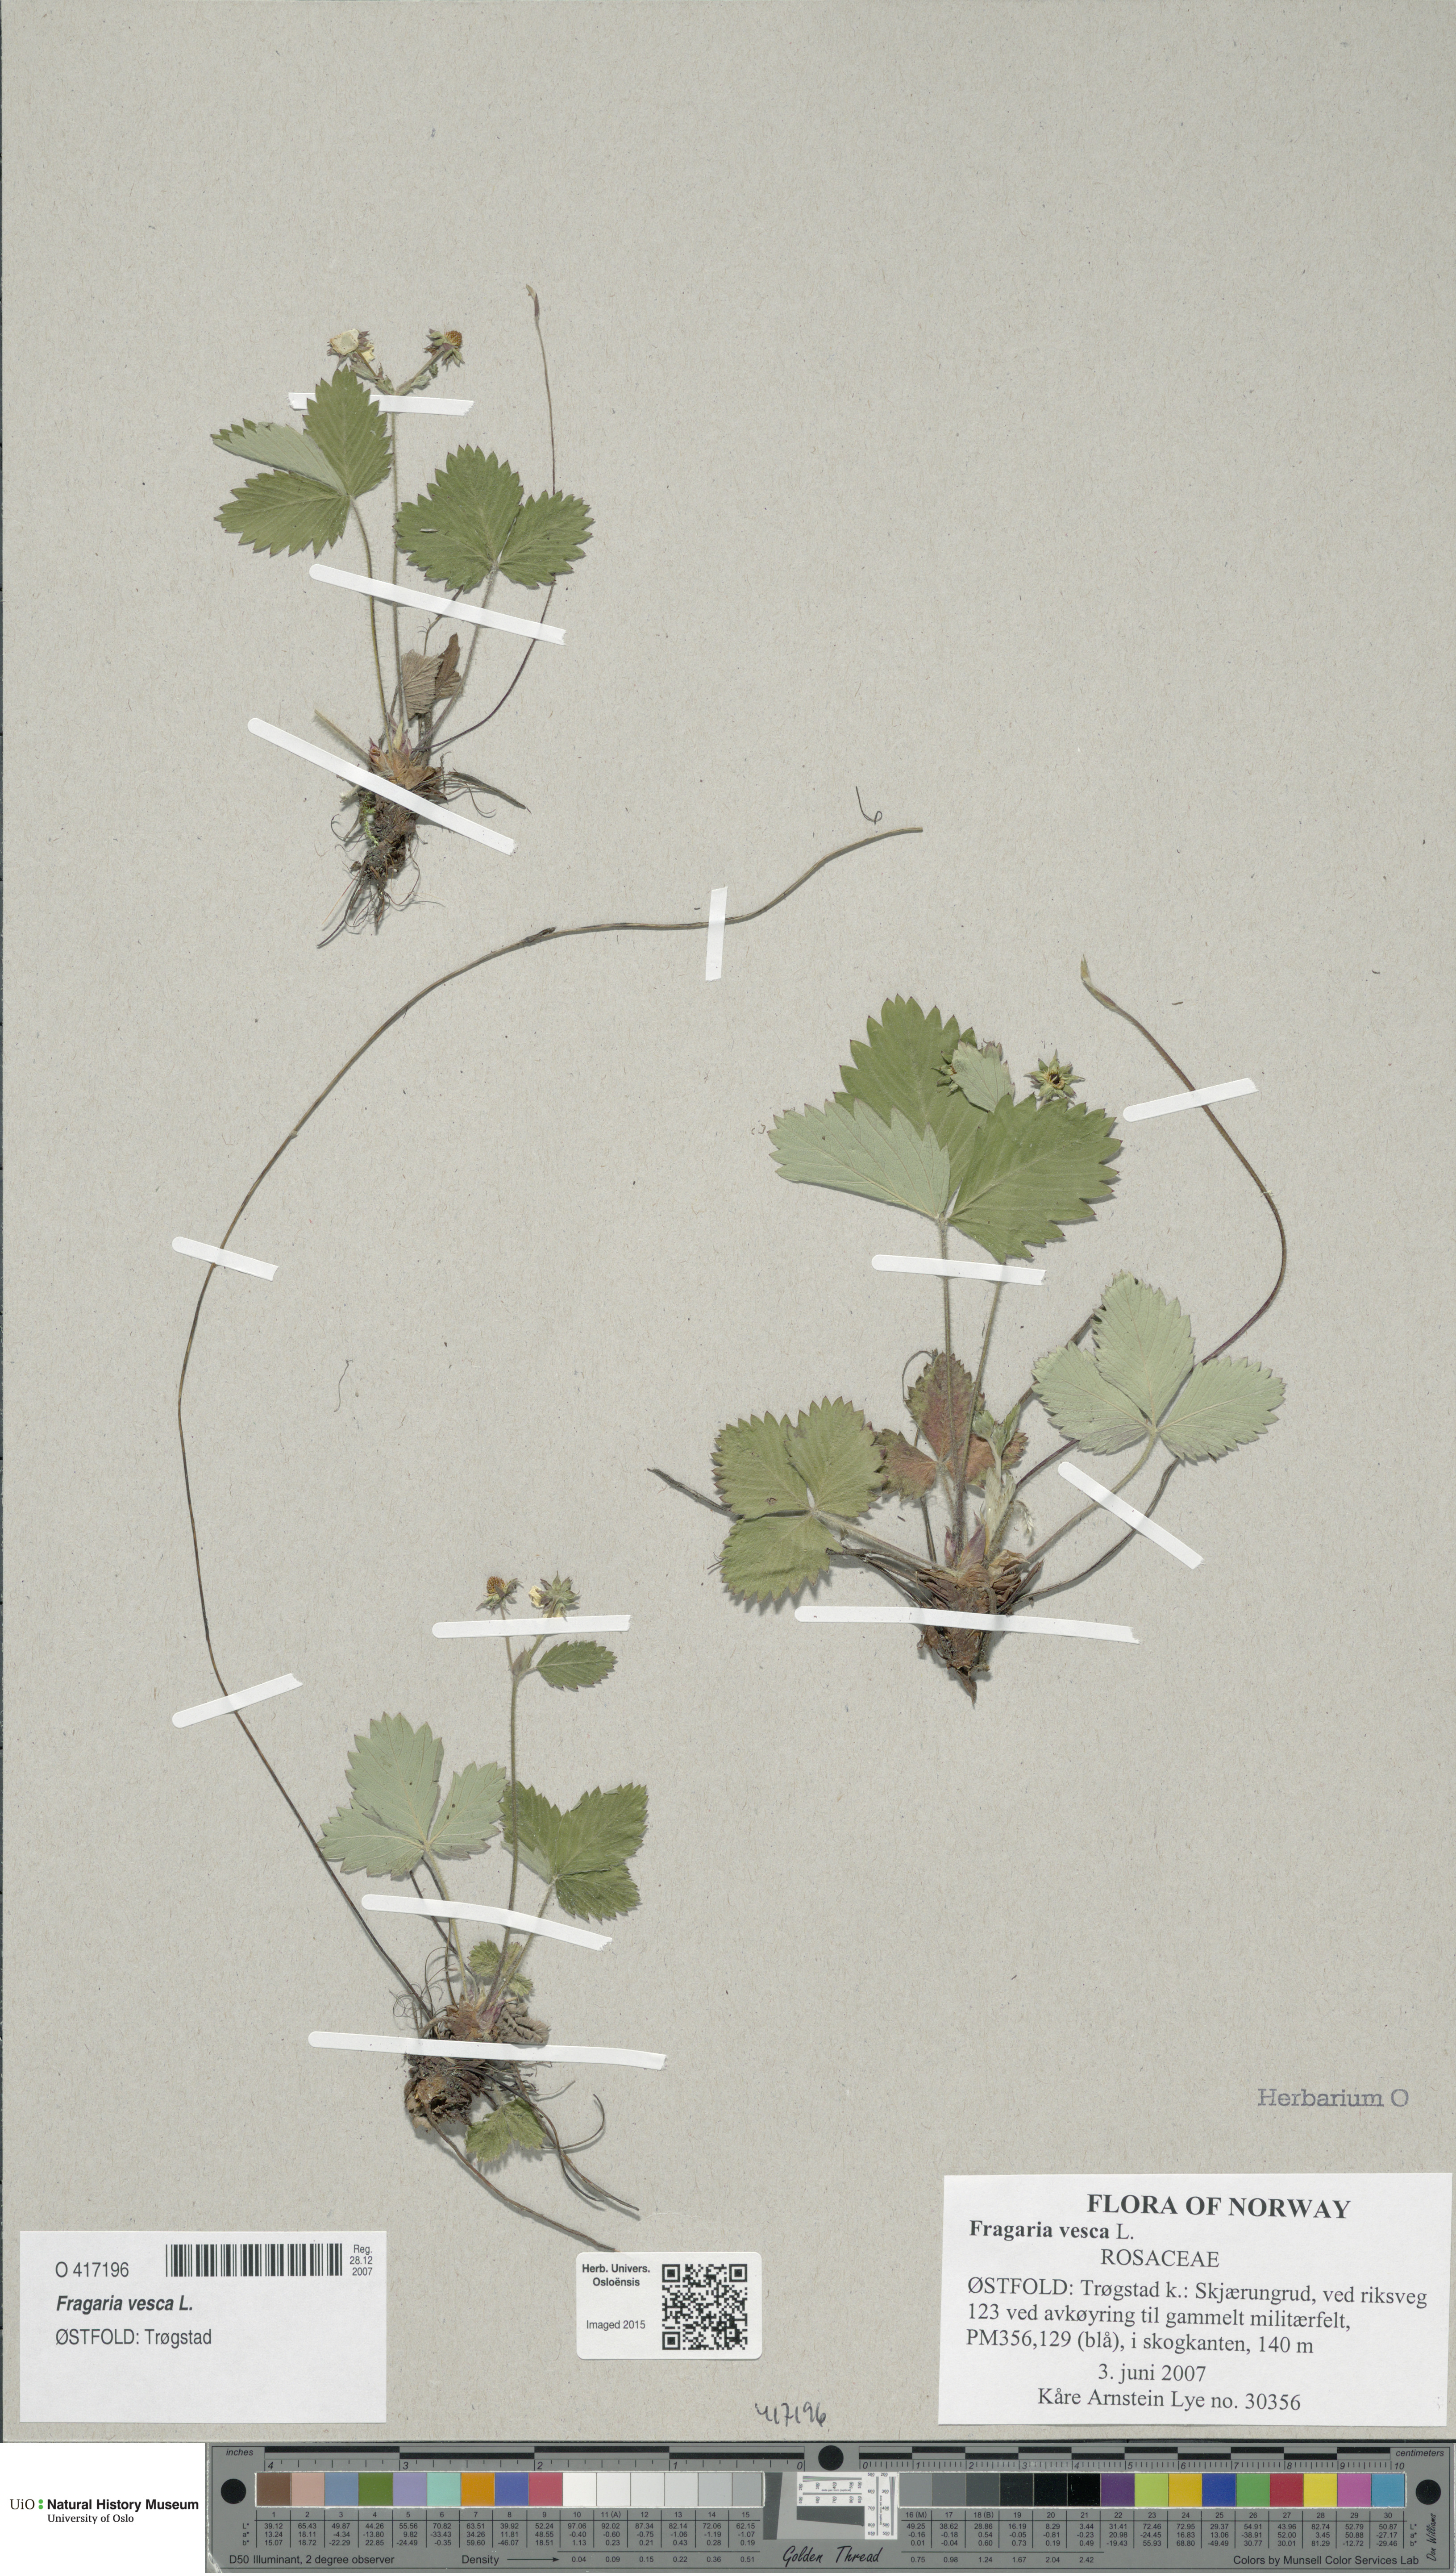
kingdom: Plantae
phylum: Tracheophyta
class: Magnoliopsida
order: Rosales
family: Rosaceae
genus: Fragaria
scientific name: Fragaria vesca
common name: Wild strawberry
